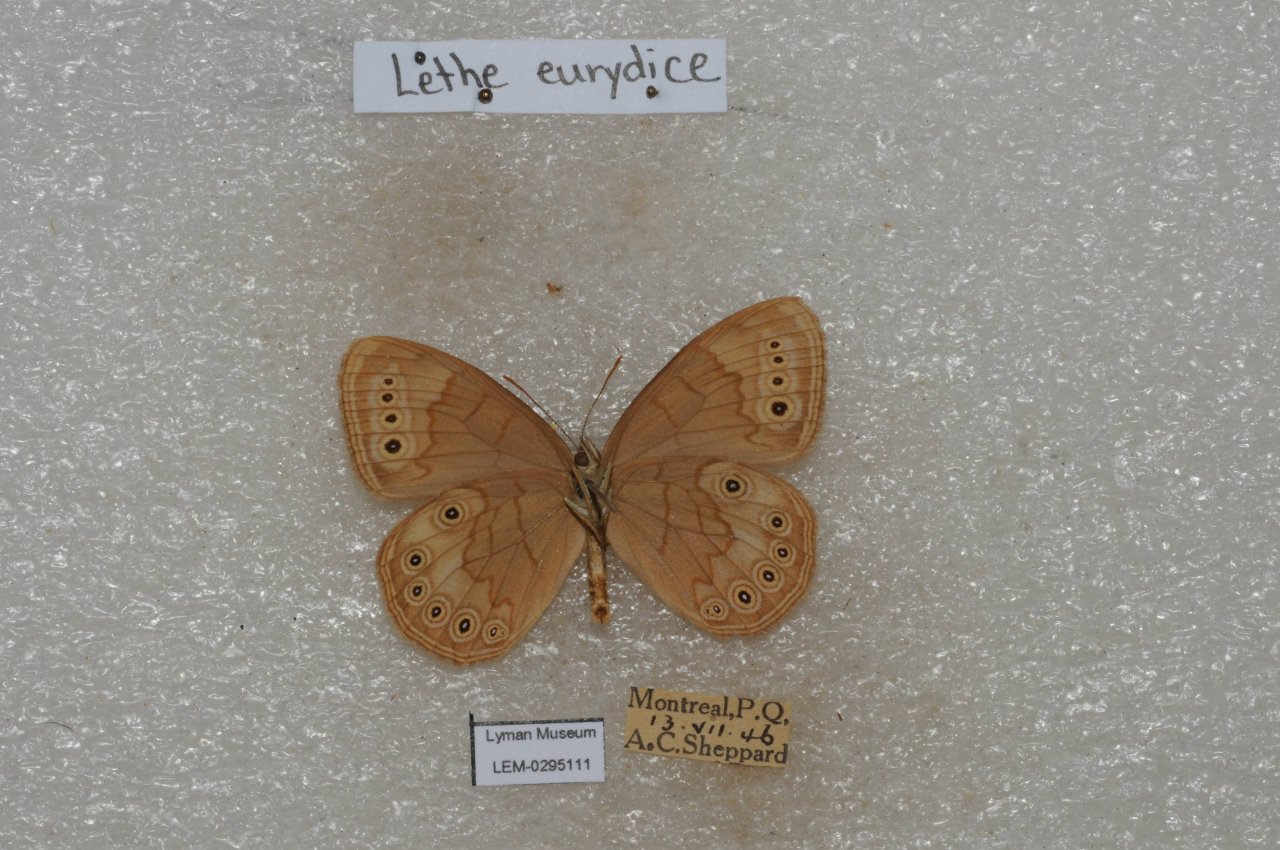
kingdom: Animalia
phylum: Arthropoda
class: Insecta
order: Lepidoptera
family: Nymphalidae
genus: Lethe
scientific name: Lethe eurydice
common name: Eyed Brown
